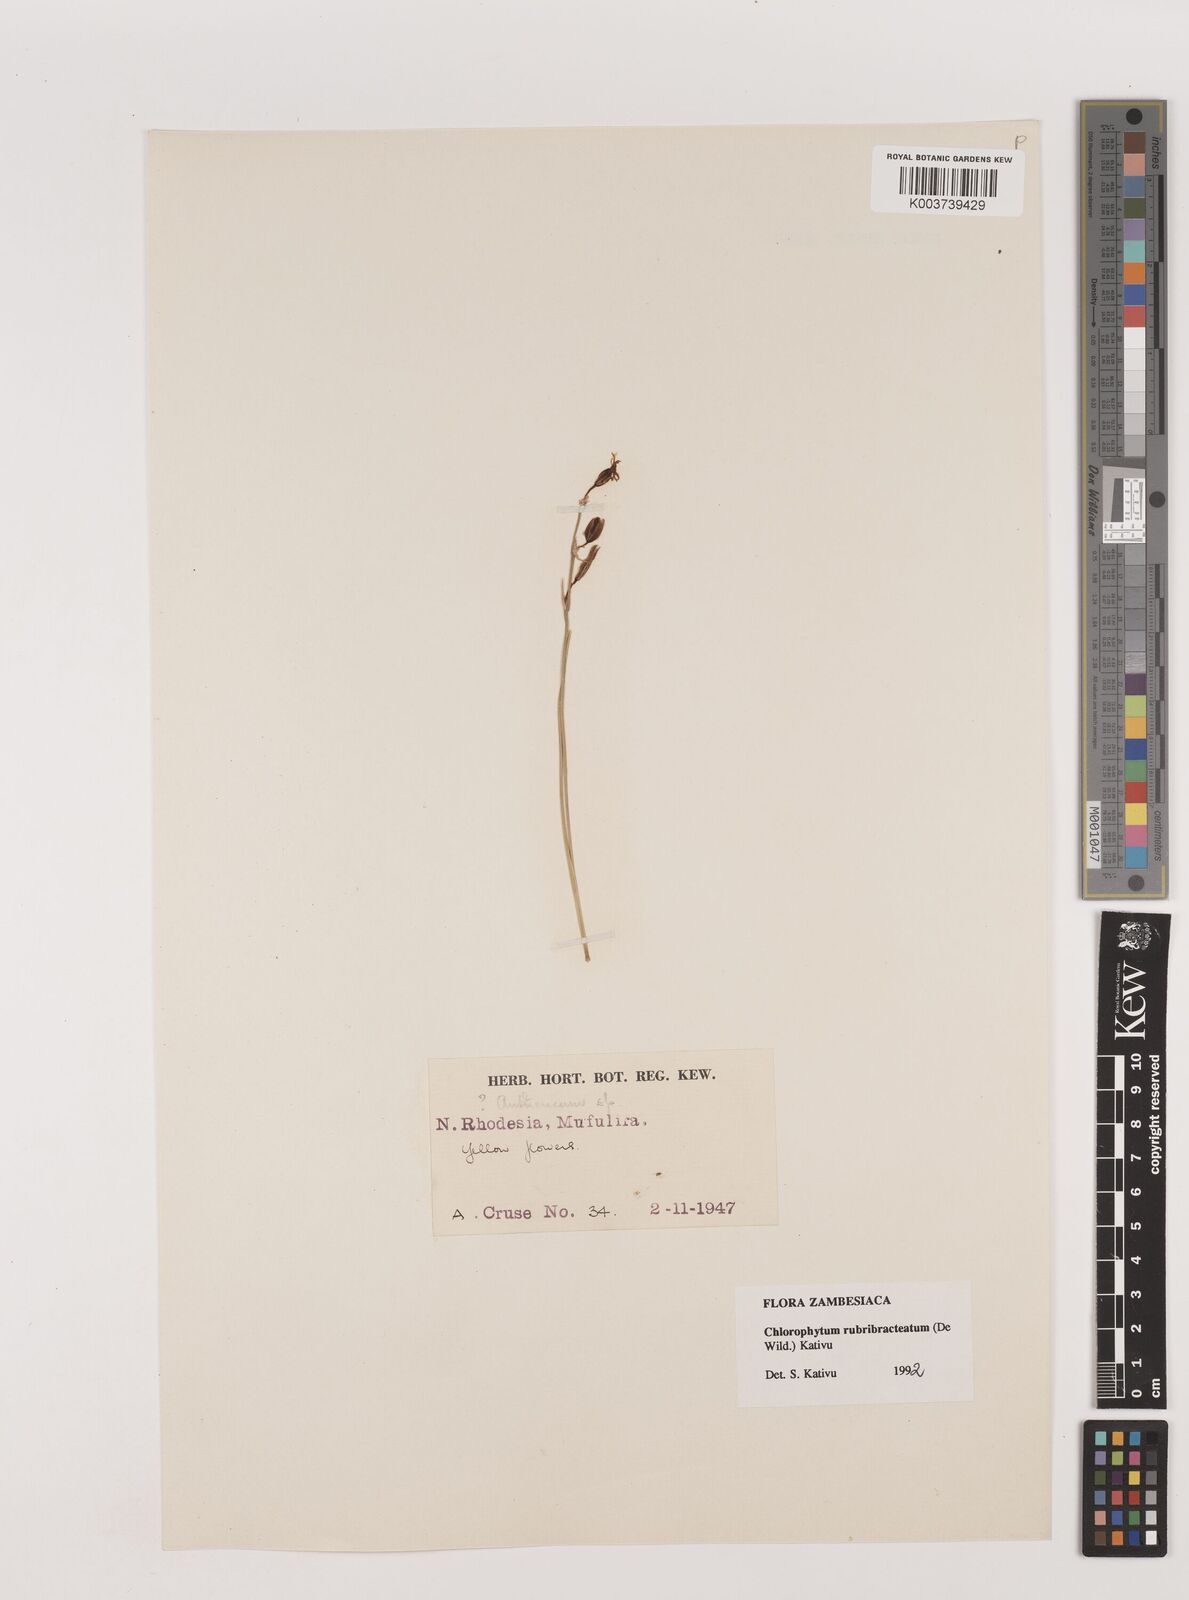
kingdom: Plantae
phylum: Tracheophyta
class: Liliopsida
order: Asparagales
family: Asparagaceae
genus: Chlorophytum
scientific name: Chlorophytum rubribracteatum
